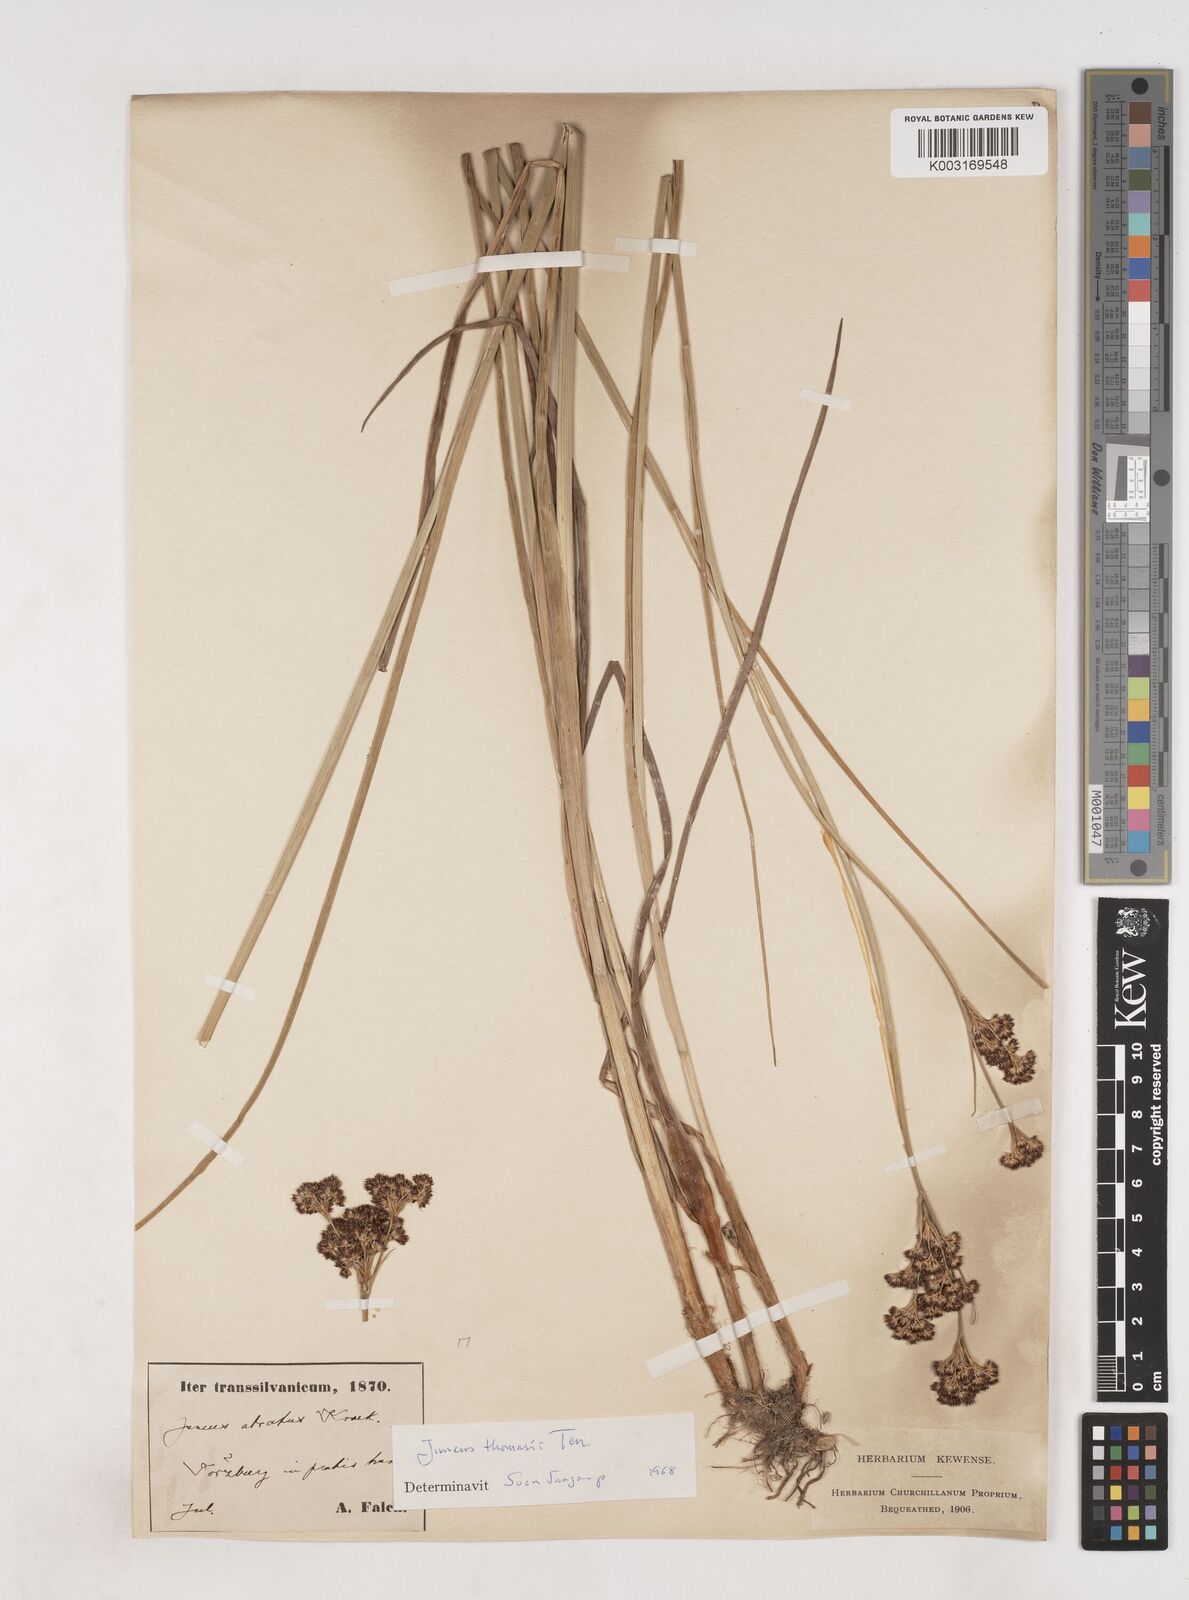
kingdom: Plantae
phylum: Tracheophyta
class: Liliopsida
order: Poales
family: Juncaceae
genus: Juncus
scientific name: Juncus thomasii
